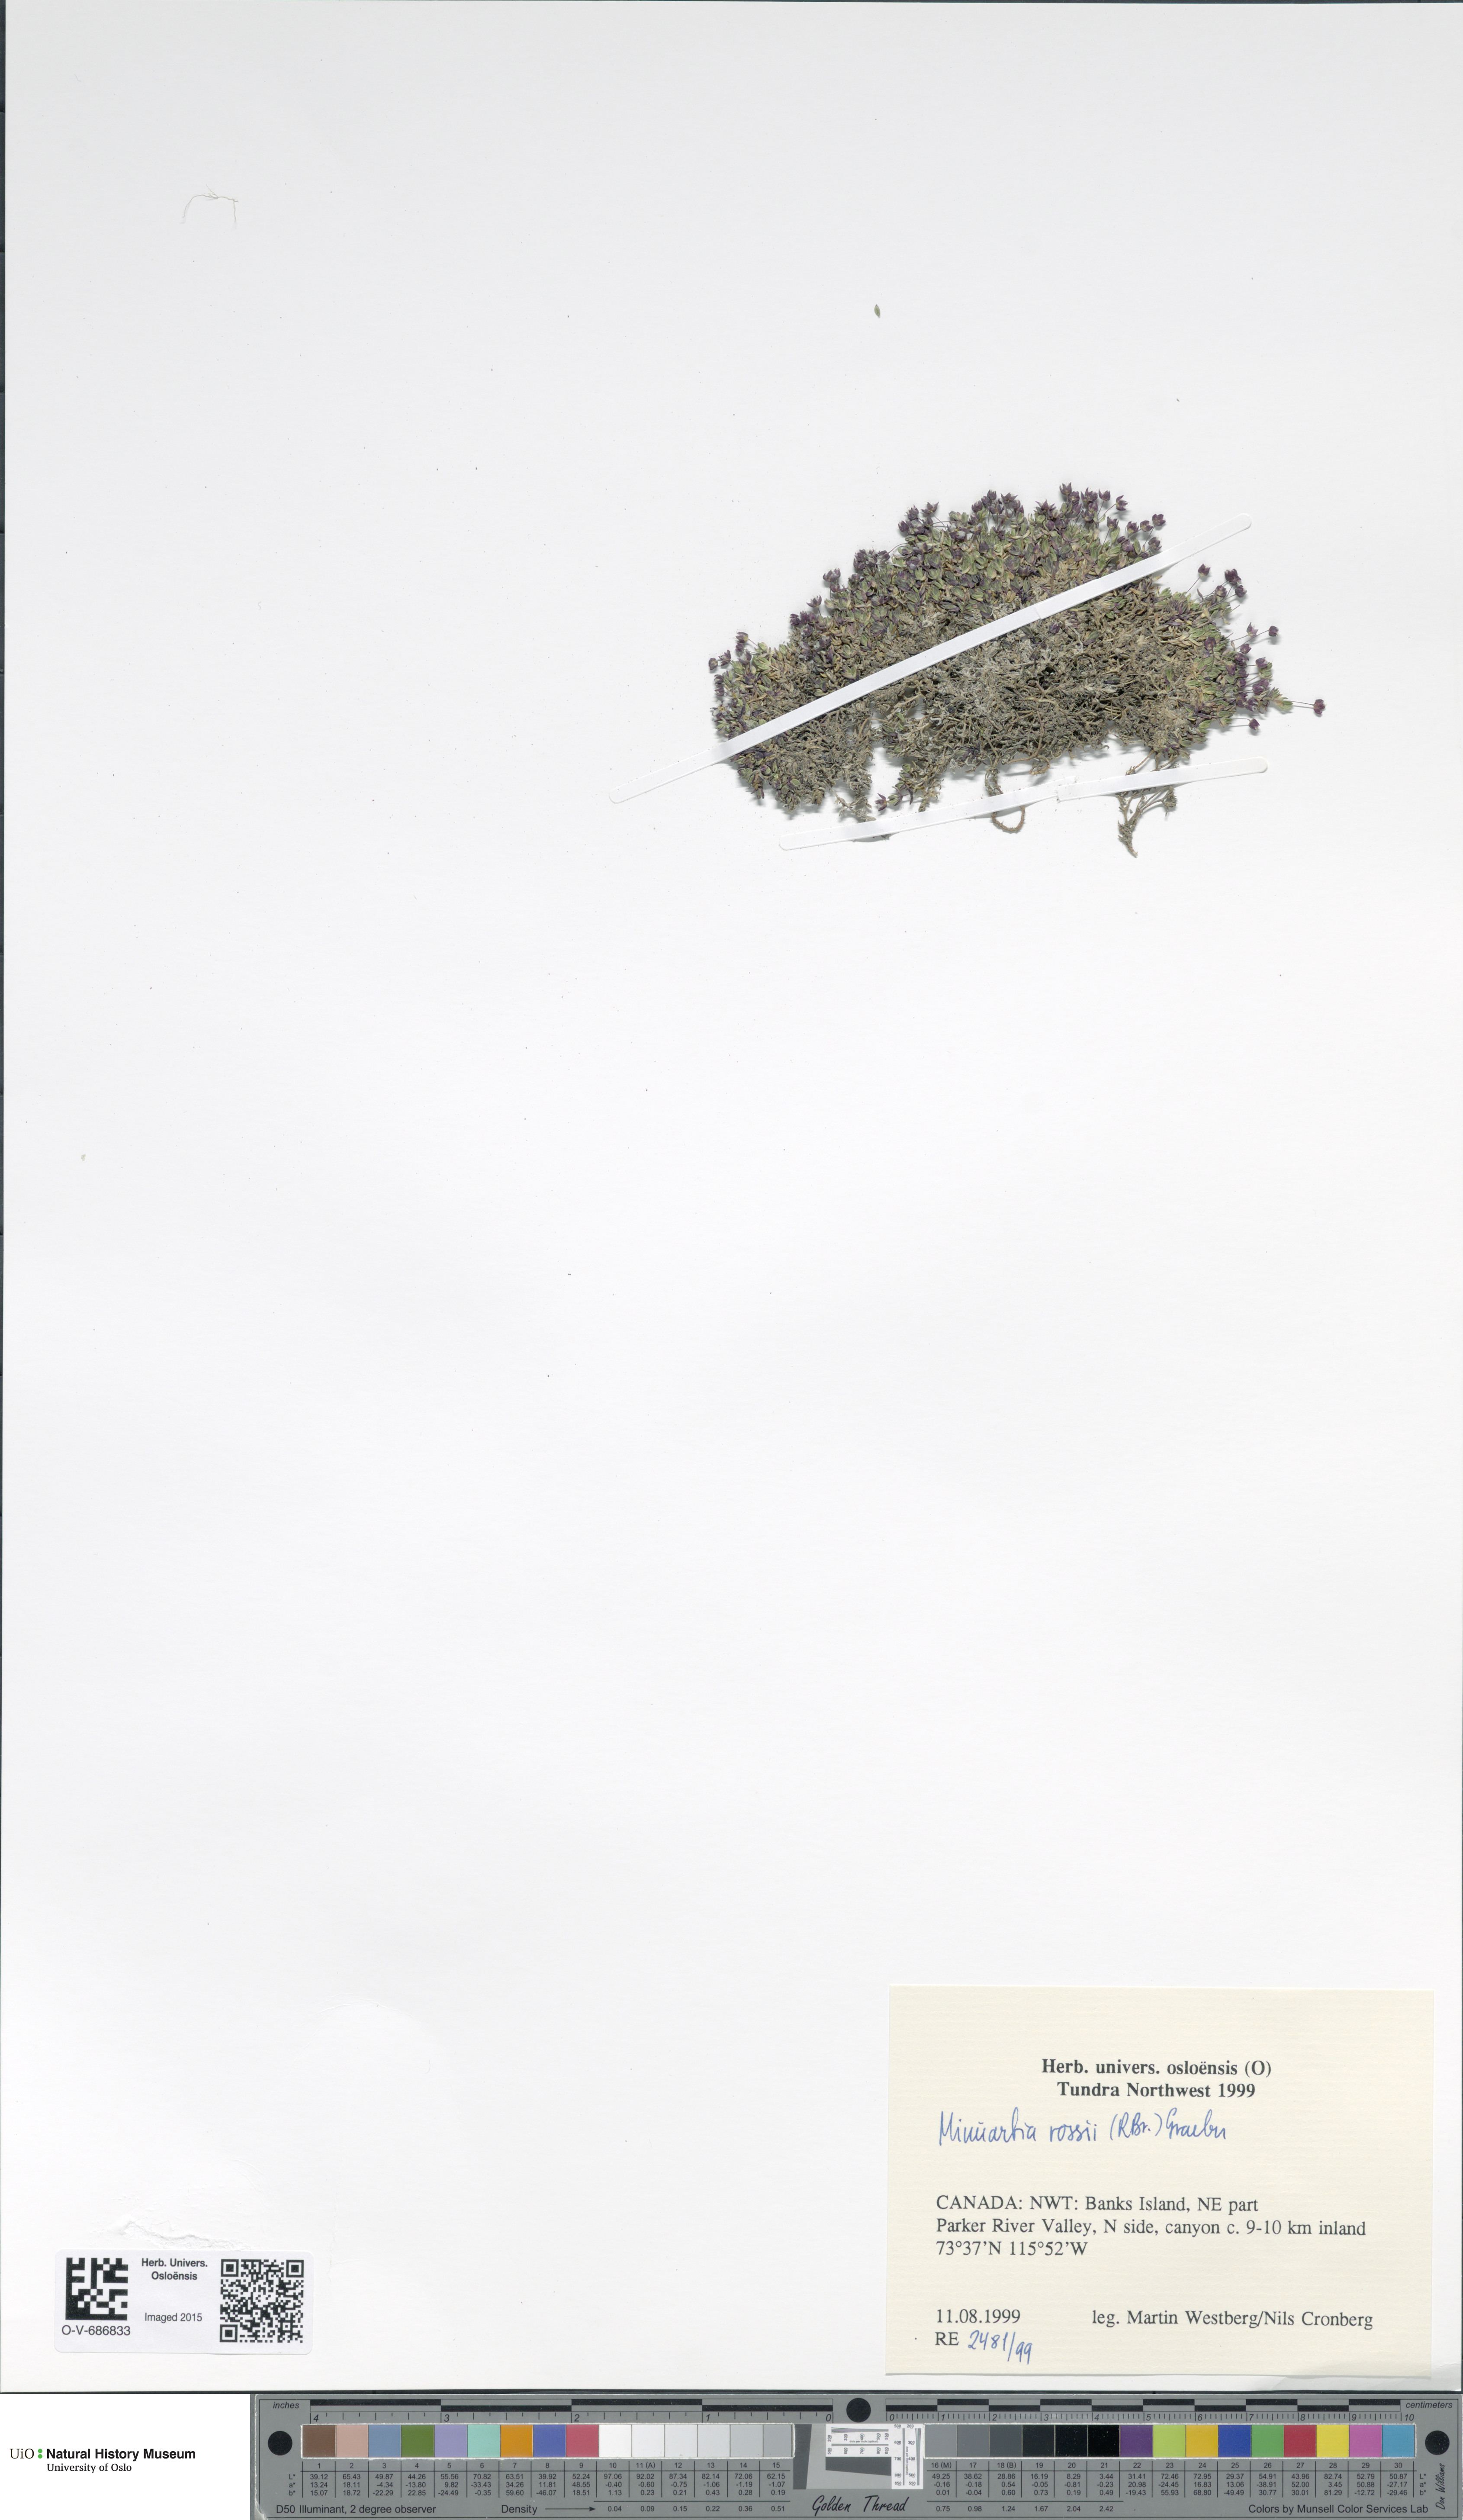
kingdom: Plantae
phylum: Tracheophyta
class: Magnoliopsida
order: Caryophyllales
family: Caryophyllaceae
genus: Sabulina
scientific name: Sabulina rosei
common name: Ross' sandwort
